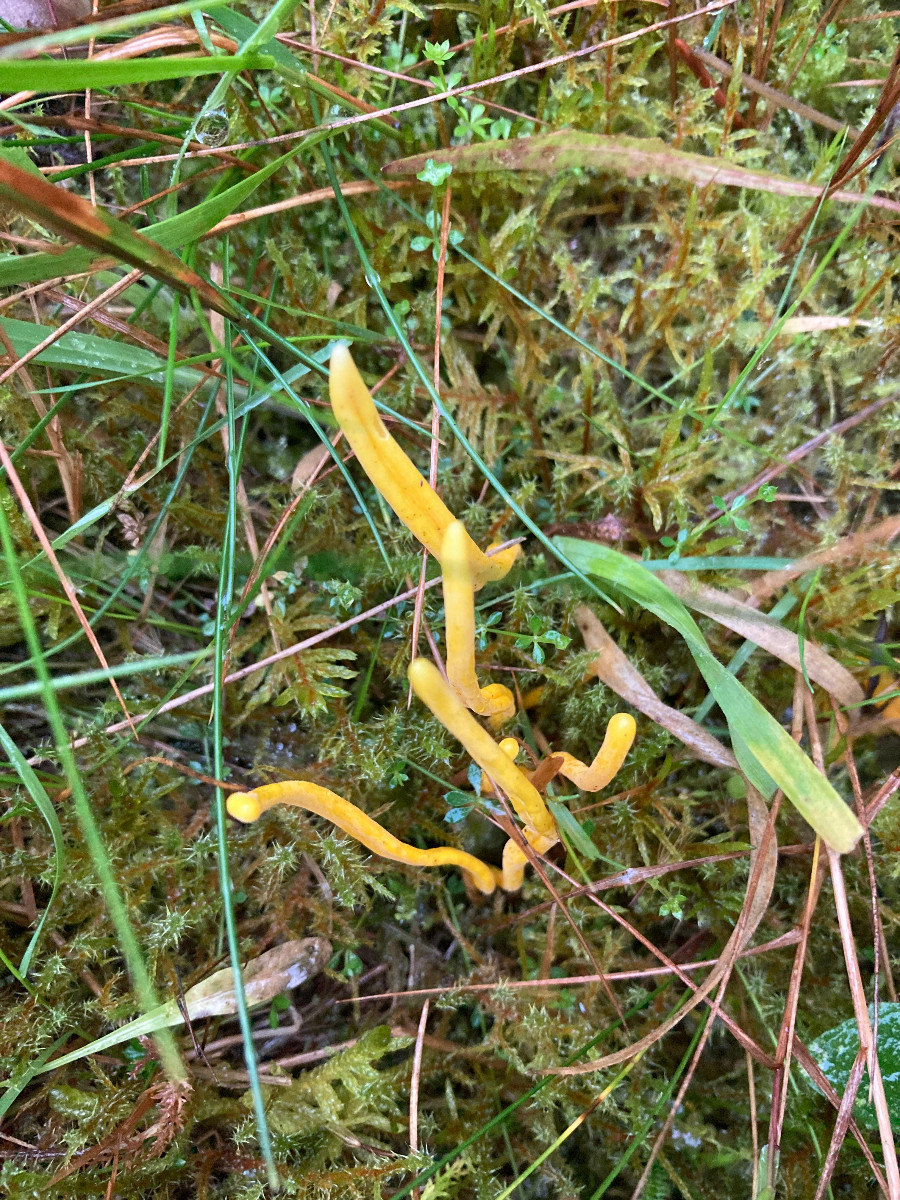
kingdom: Fungi
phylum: Basidiomycota
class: Agaricomycetes
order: Agaricales
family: Clavariaceae
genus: Clavulinopsis
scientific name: Clavulinopsis helvola
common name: orangegul køllesvamp
